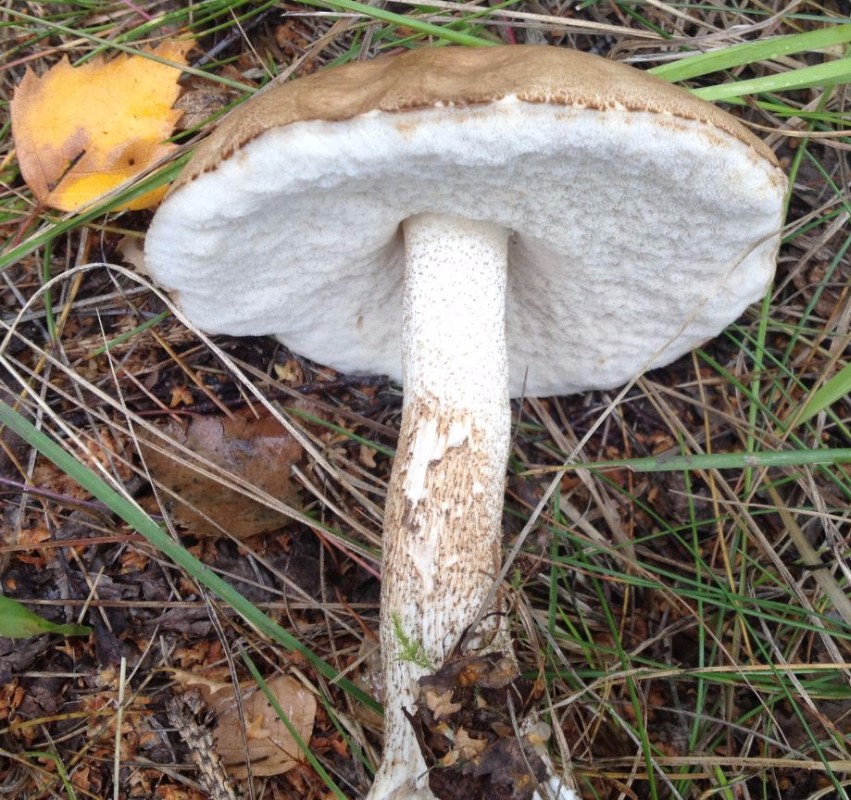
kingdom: Fungi
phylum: Basidiomycota
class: Agaricomycetes
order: Boletales
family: Boletaceae
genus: Leccinum
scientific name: Leccinum
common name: skælrørhat
